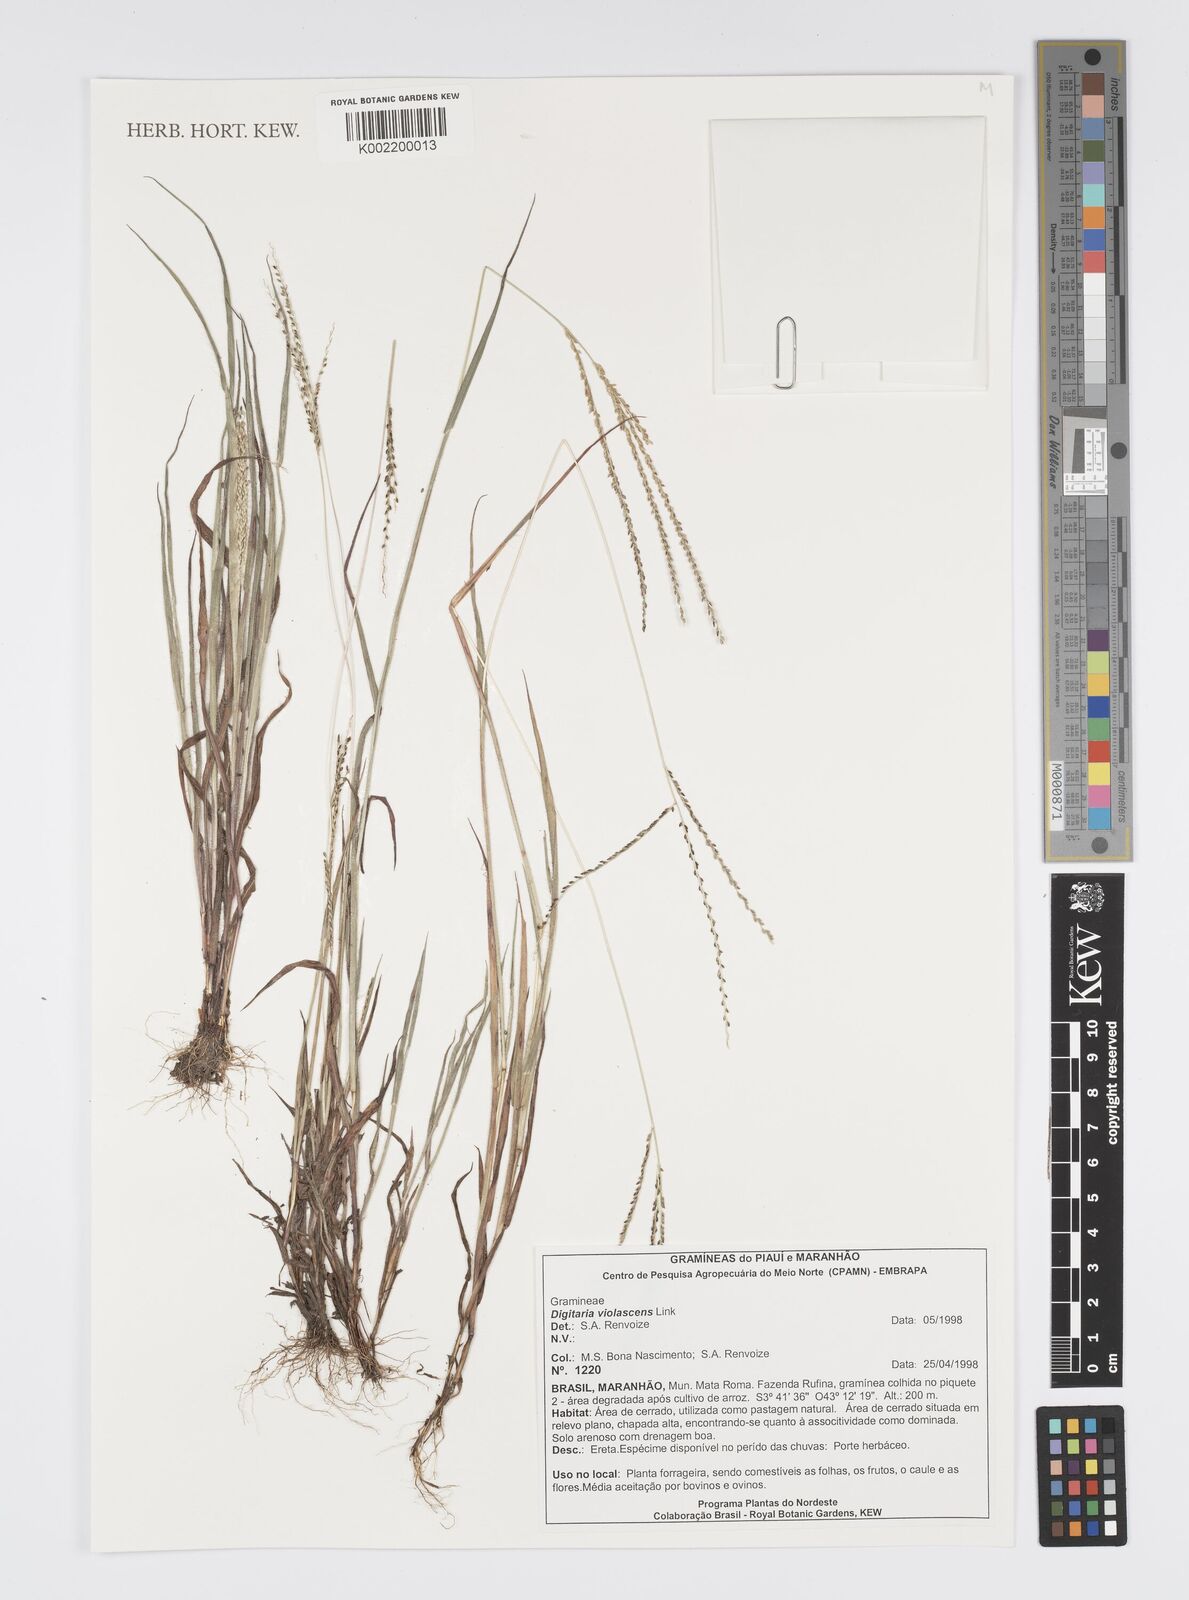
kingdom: Plantae
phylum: Tracheophyta
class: Liliopsida
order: Poales
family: Poaceae
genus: Digitaria
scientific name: Digitaria violascens
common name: Violet crabgrass
